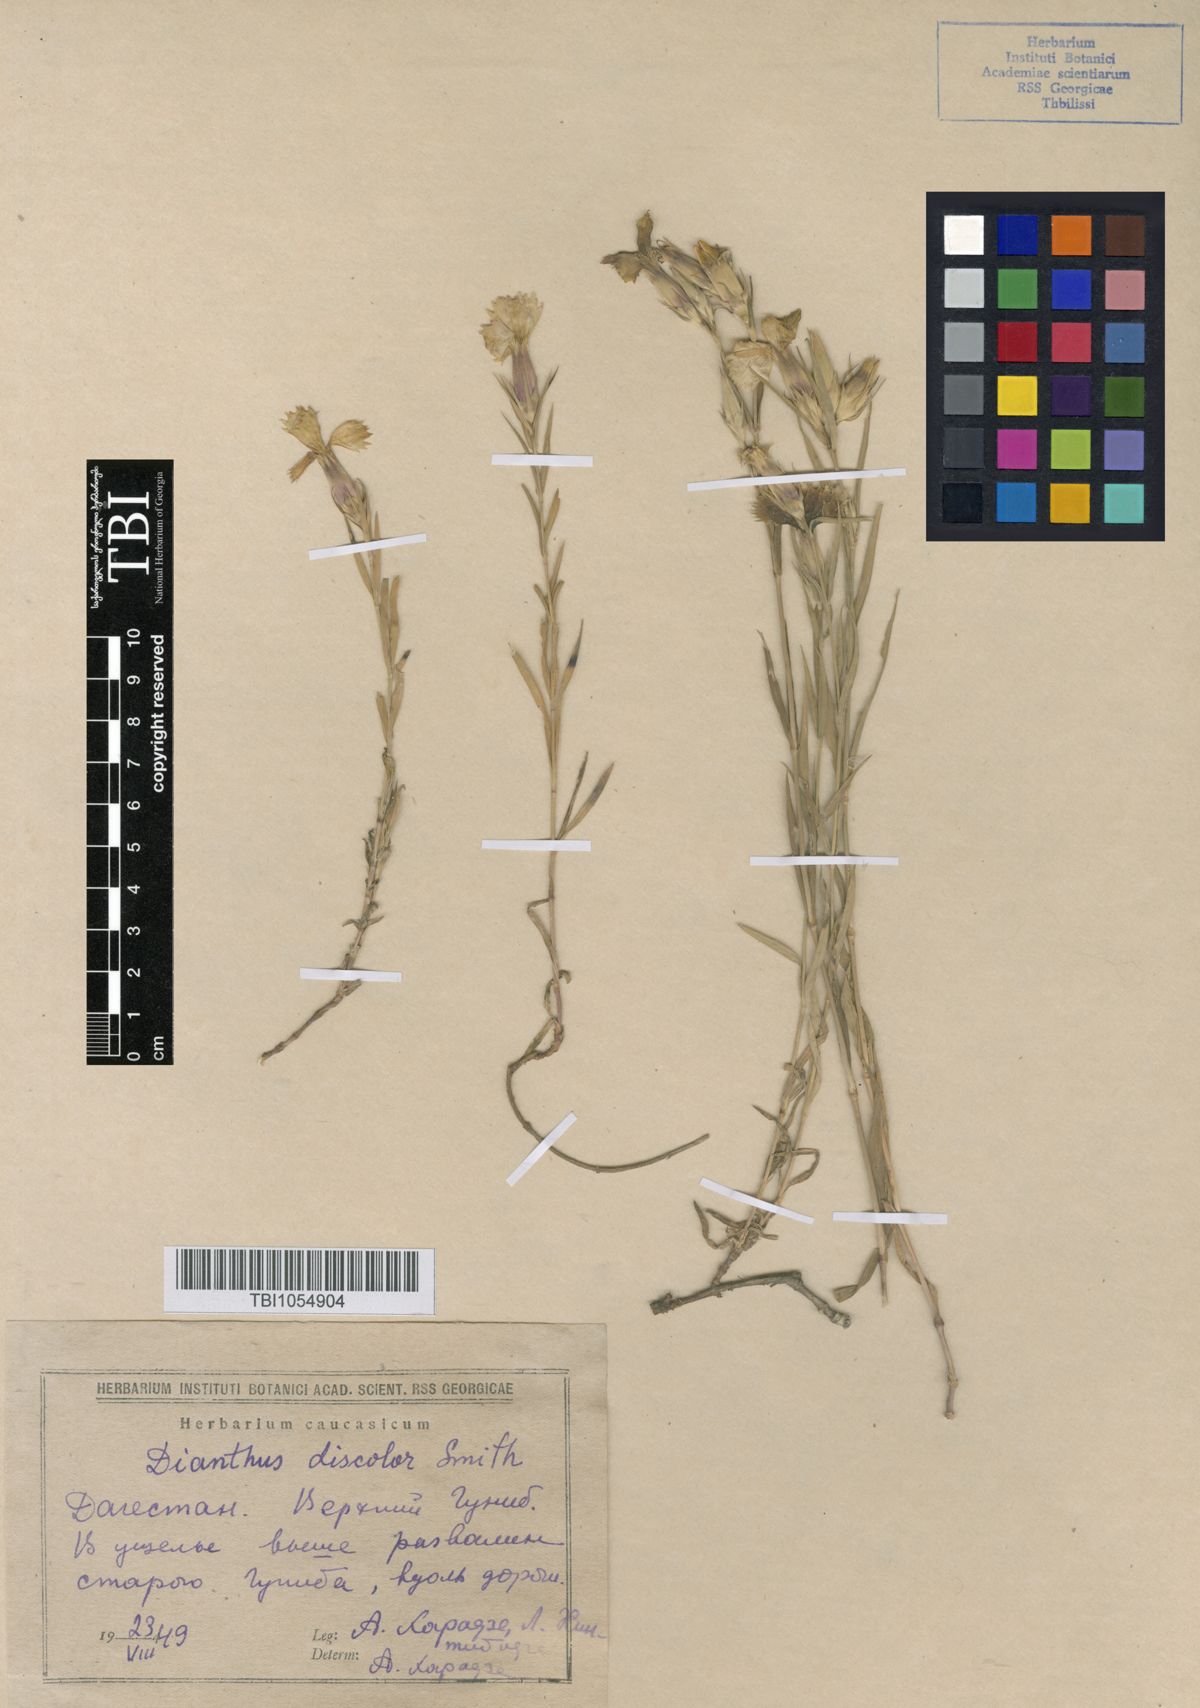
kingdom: Plantae
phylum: Tracheophyta
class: Magnoliopsida
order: Caryophyllales
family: Caryophyllaceae
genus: Dianthus
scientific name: Dianthus caucaseus
